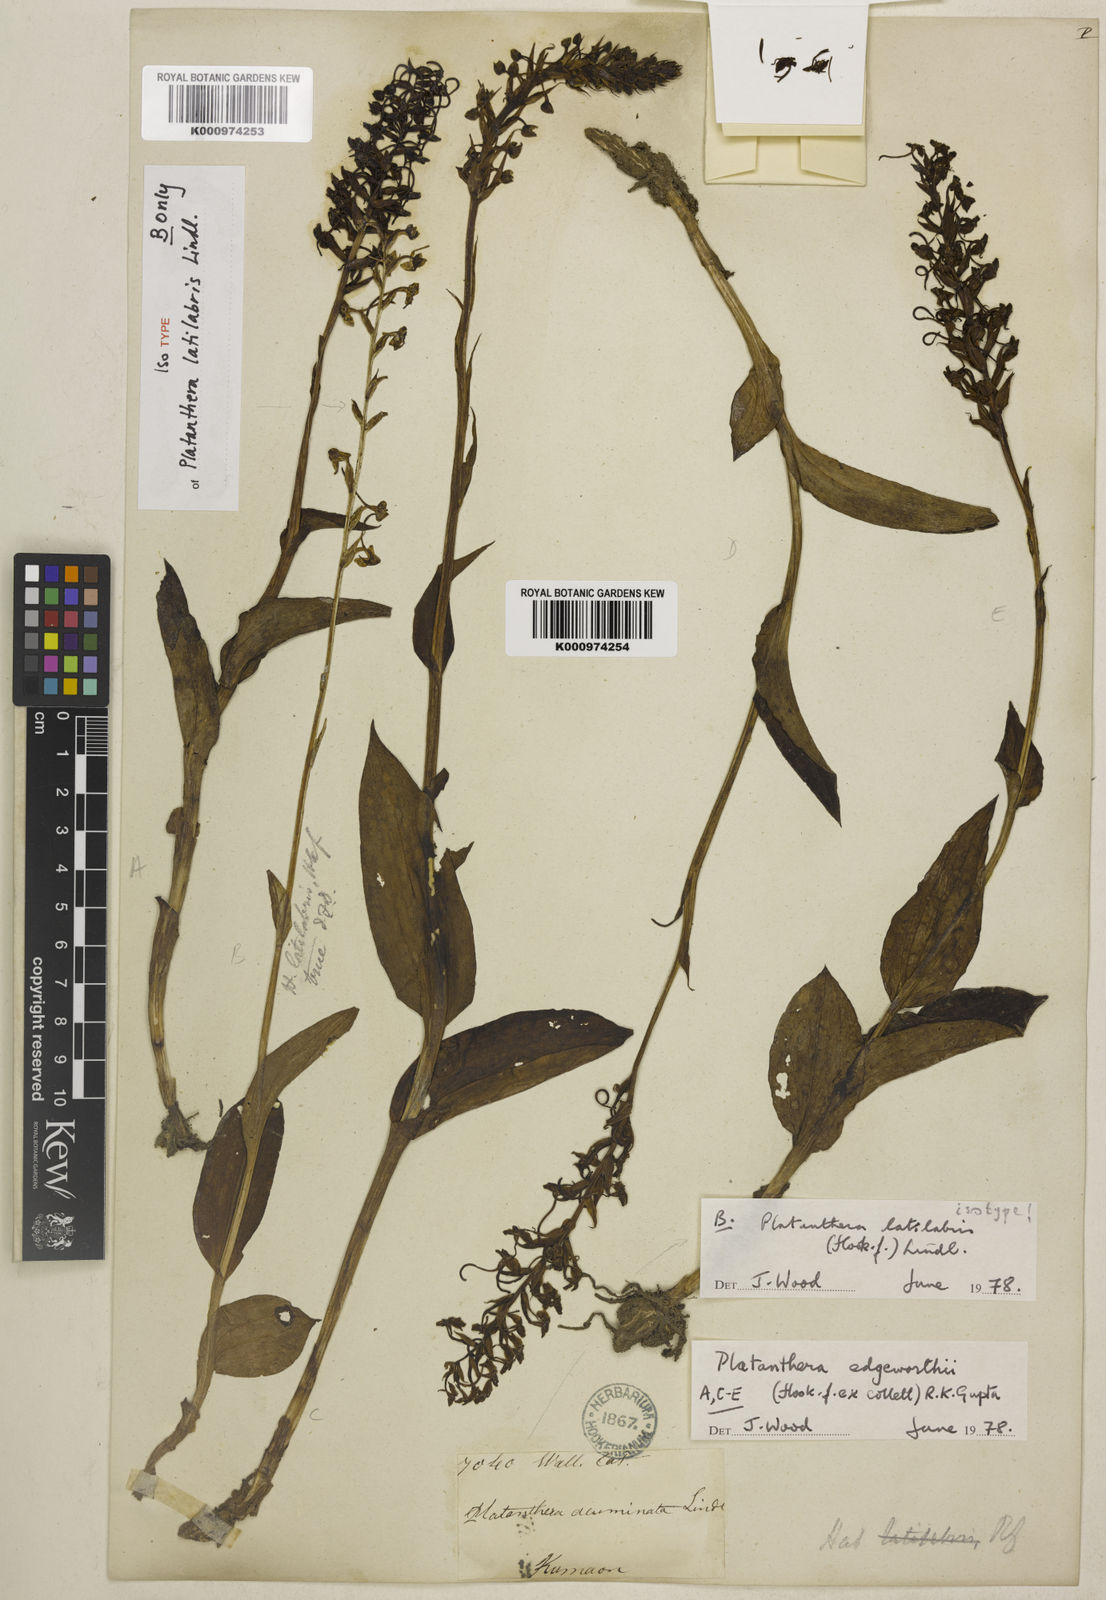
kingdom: Plantae
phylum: Tracheophyta
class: Liliopsida
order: Asparagales
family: Orchidaceae
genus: Herminium
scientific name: Herminium latilabre
